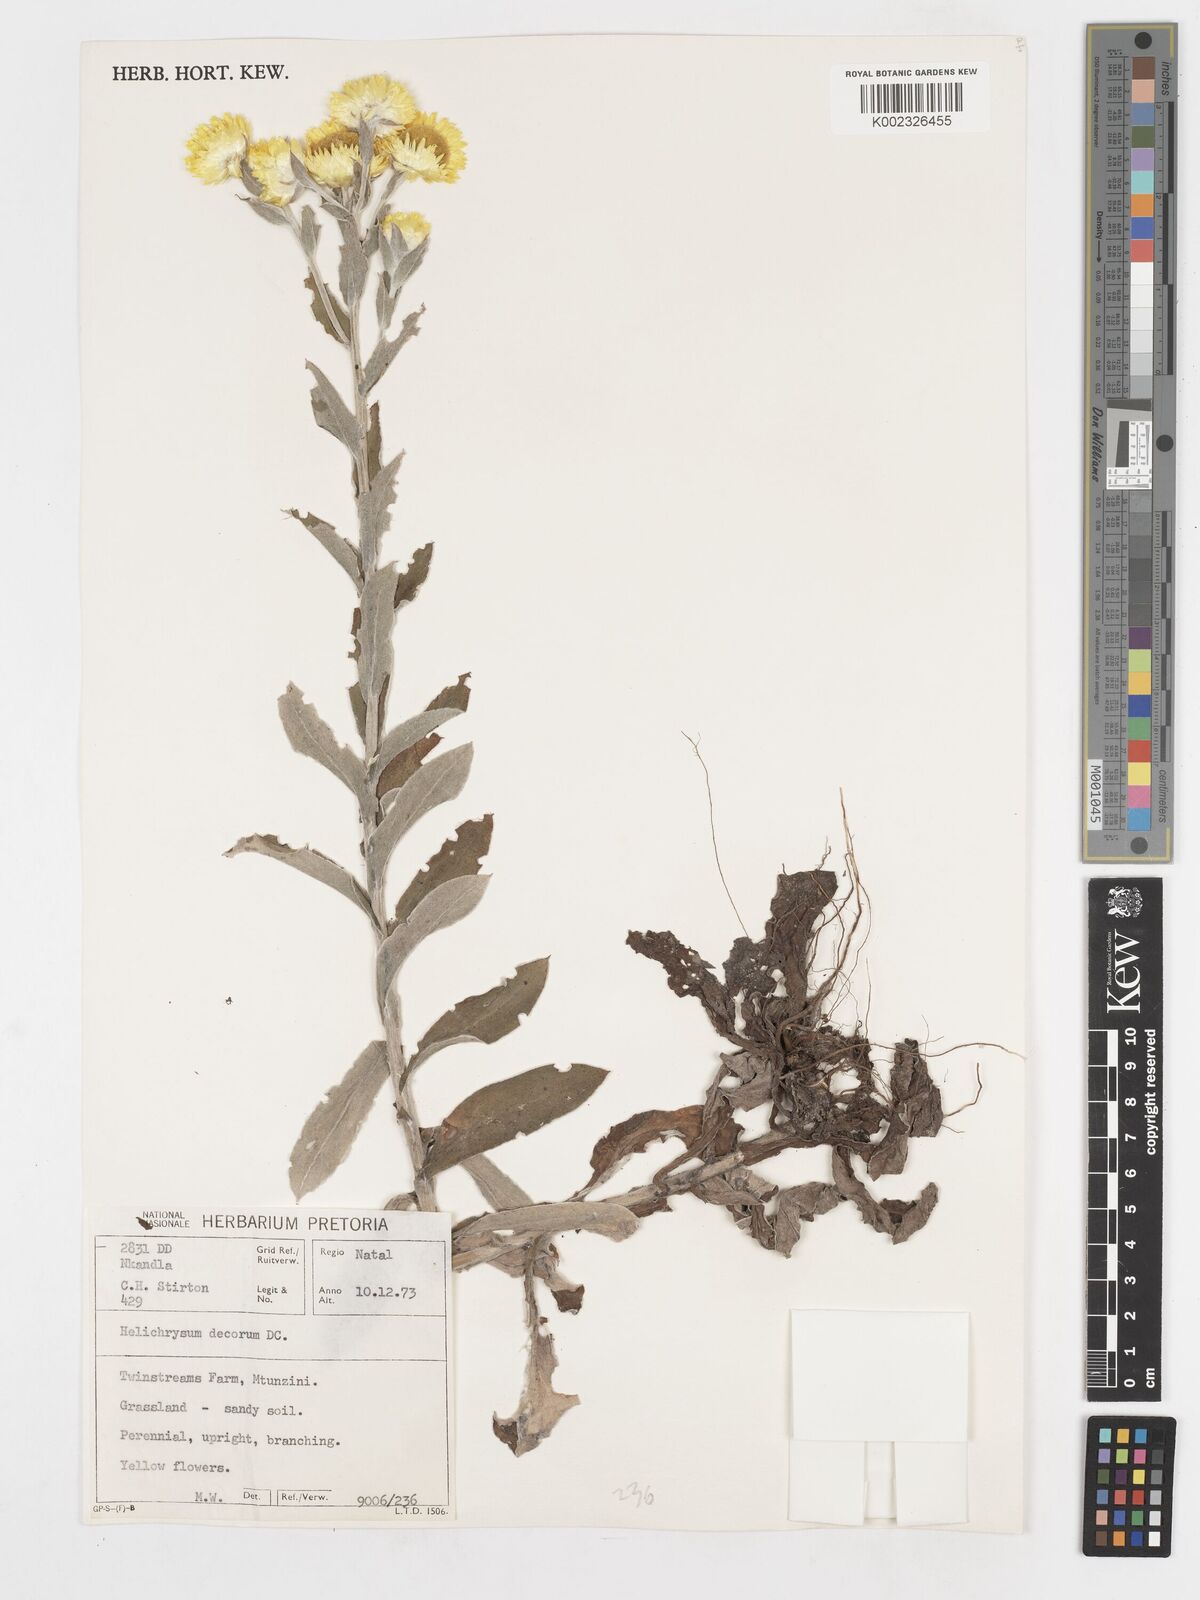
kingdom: Plantae
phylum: Tracheophyta
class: Magnoliopsida
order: Asterales
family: Asteraceae
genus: Helichrysum
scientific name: Helichrysum decorum
